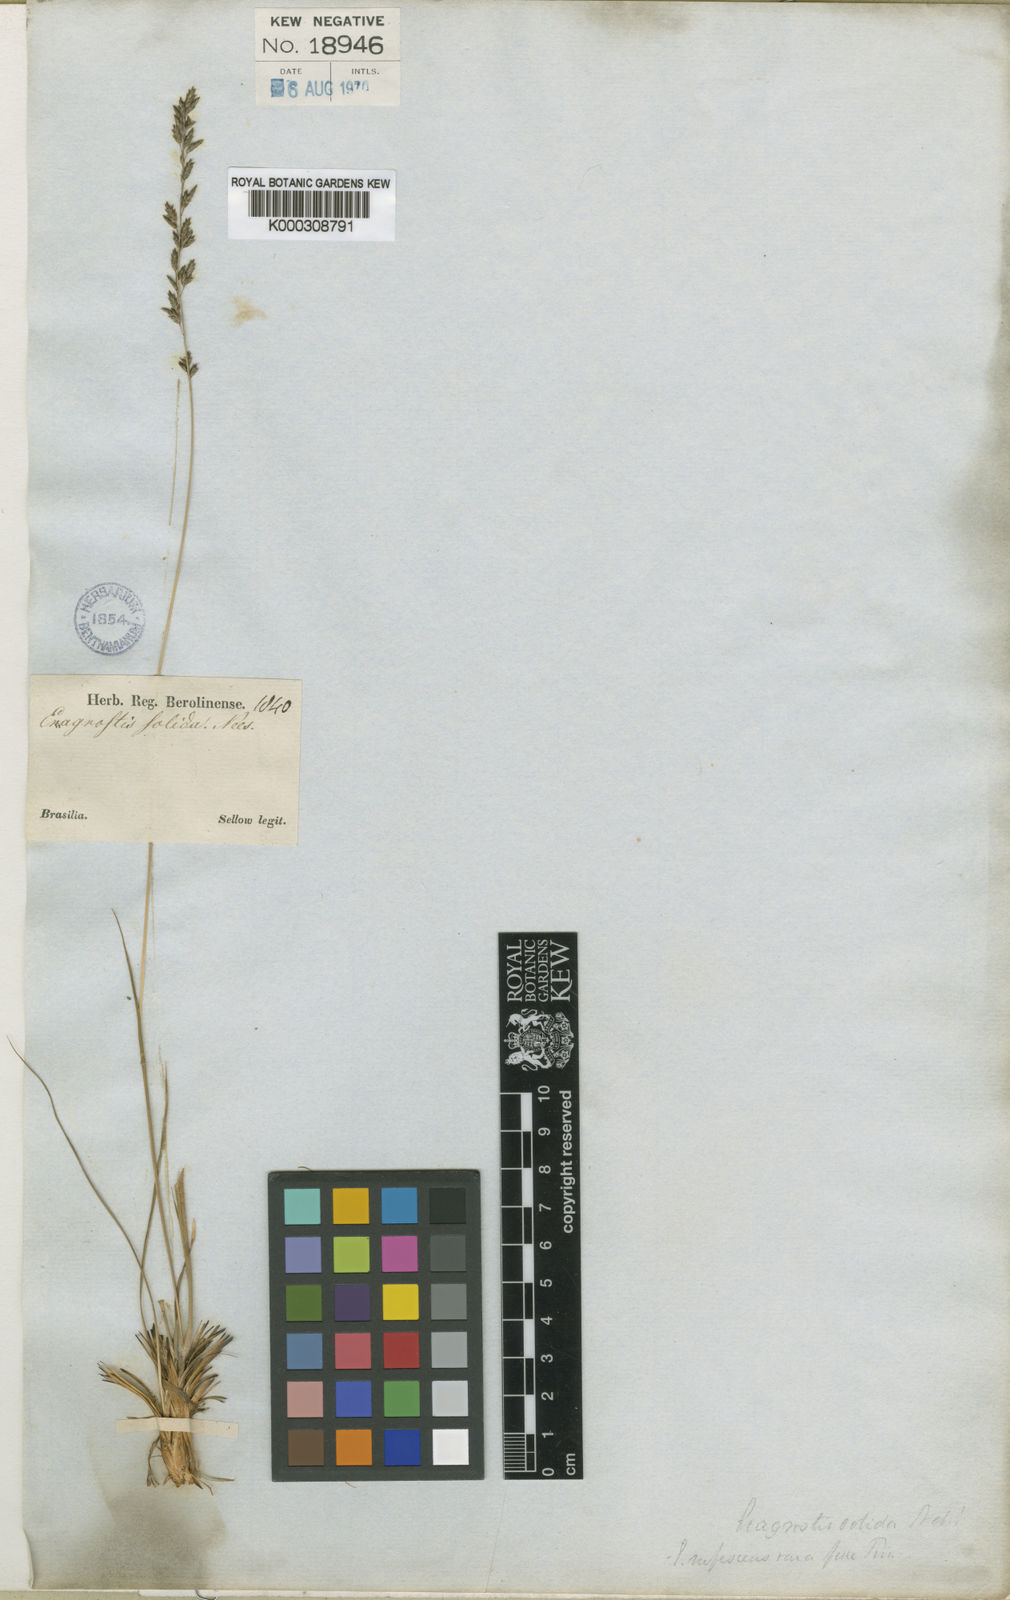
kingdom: Plantae
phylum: Tracheophyta
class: Liliopsida
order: Poales
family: Poaceae
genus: Eragrostis
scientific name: Eragrostis
